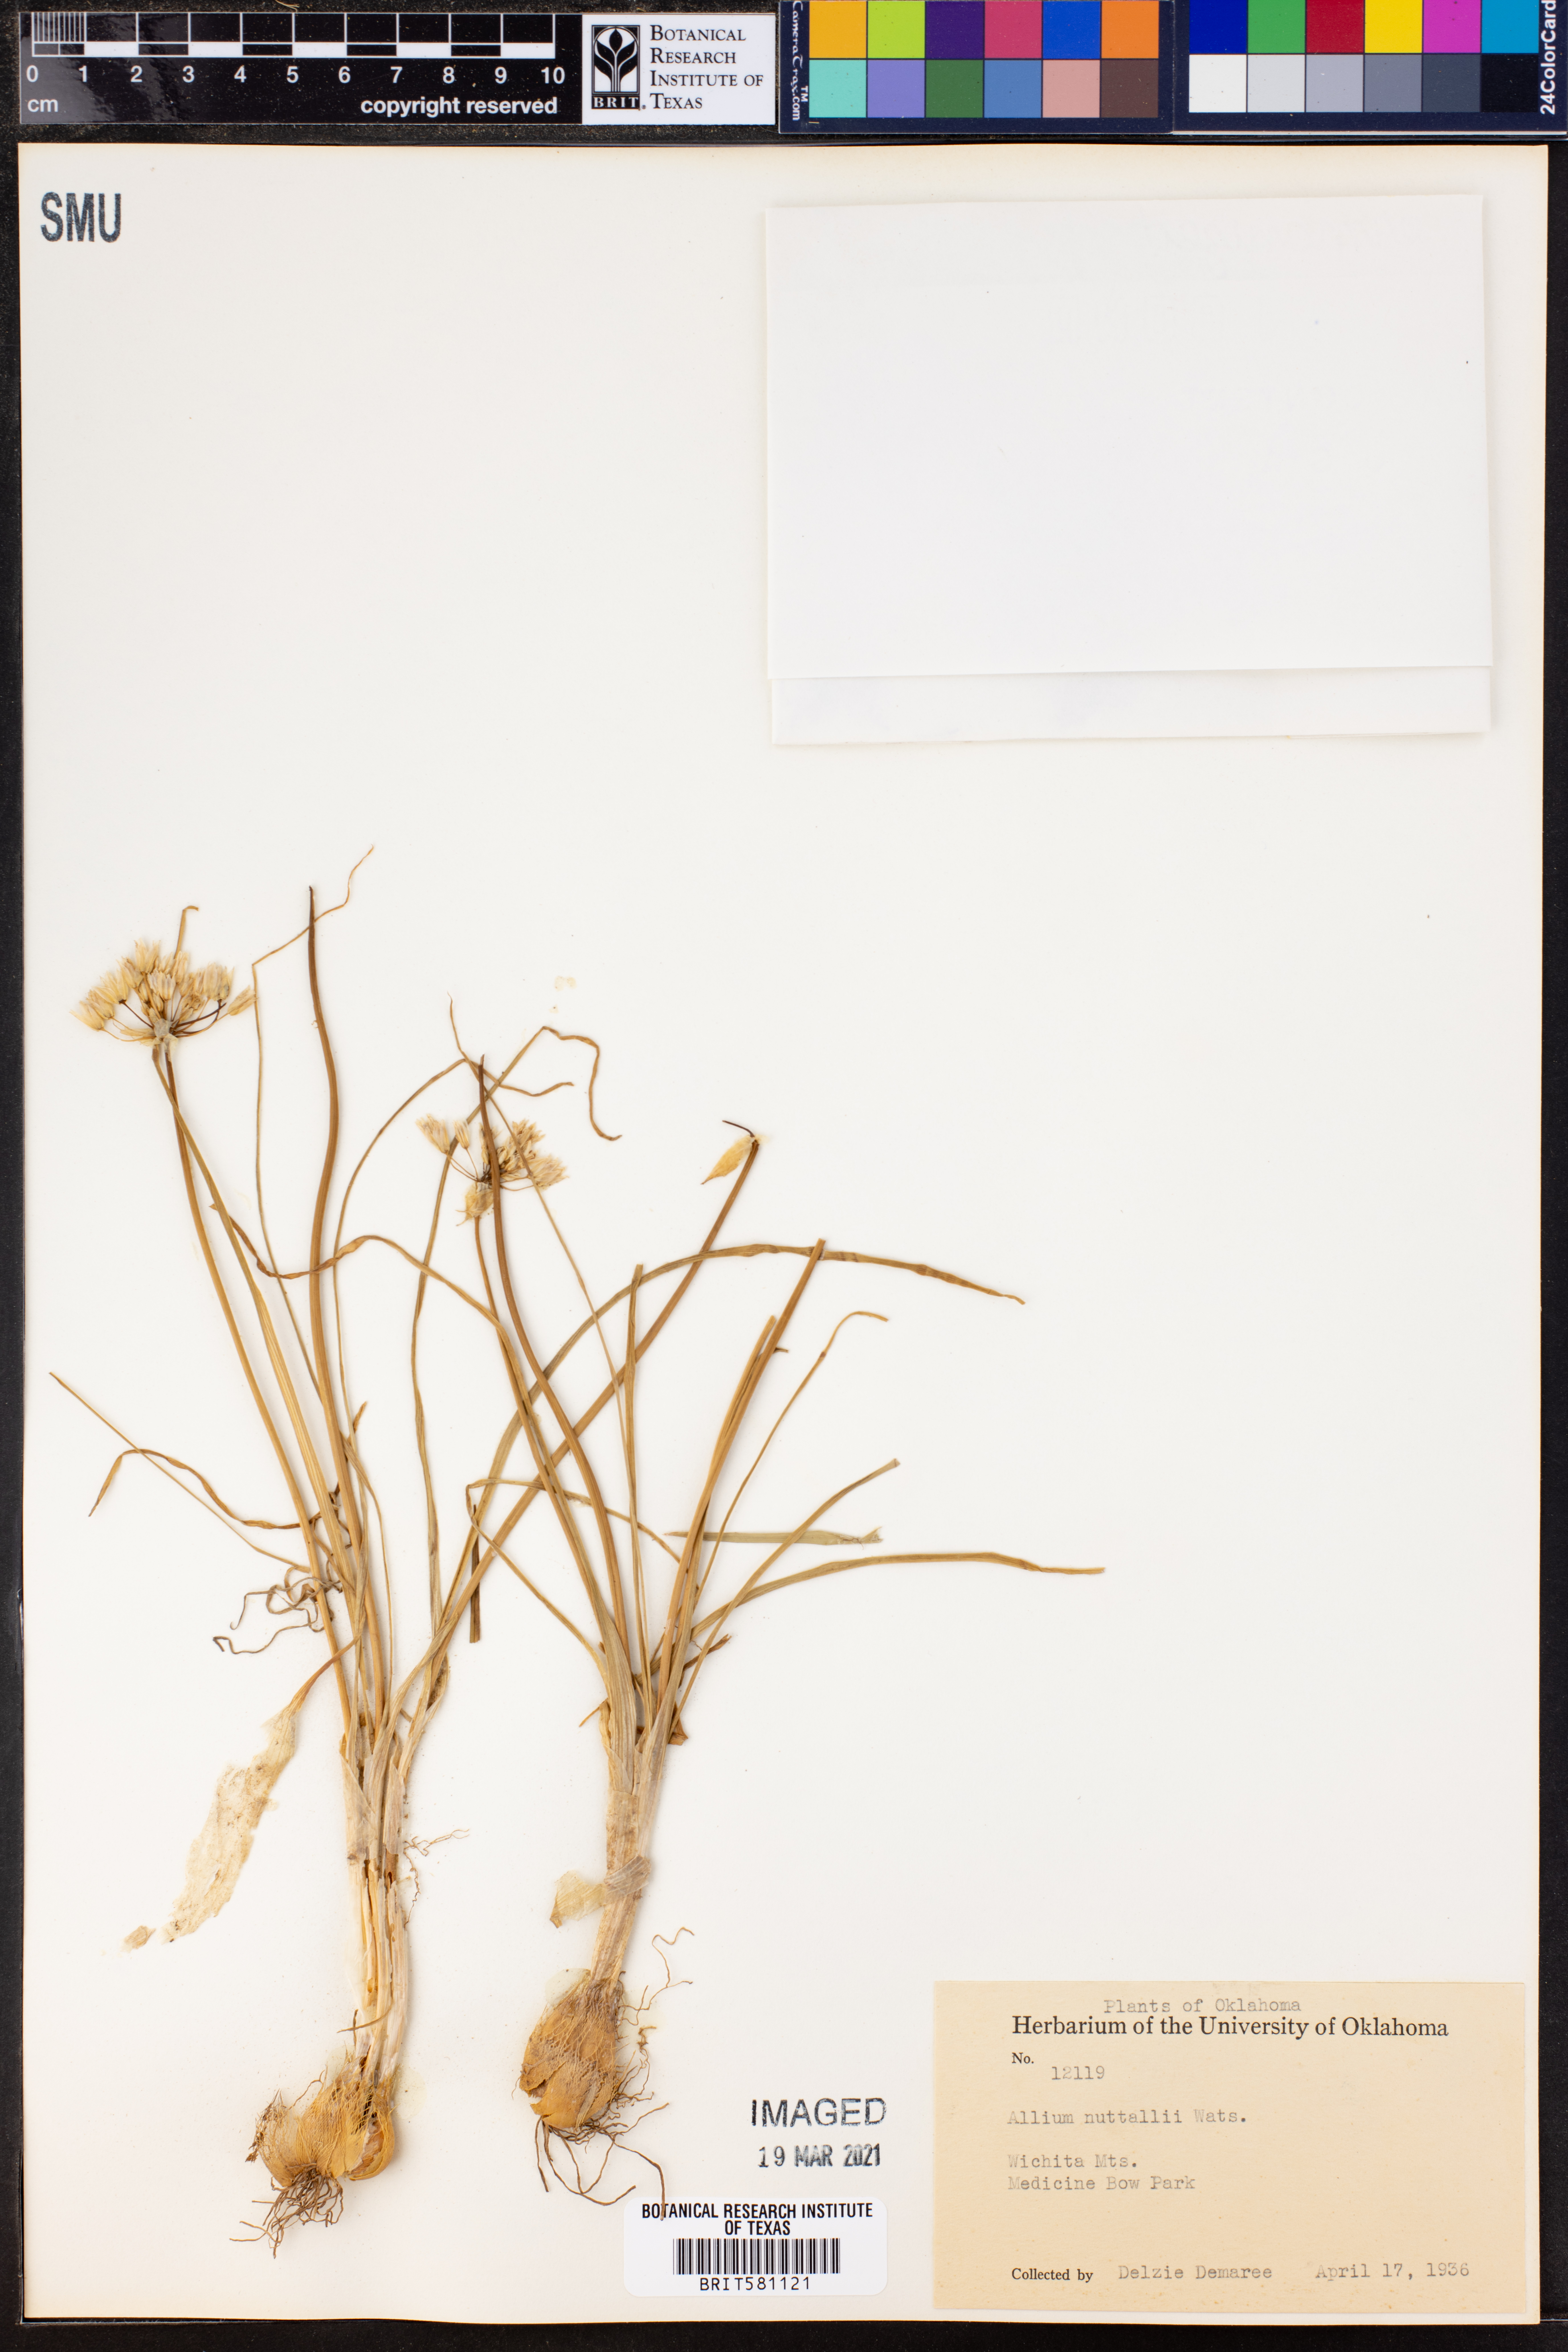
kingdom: Plantae
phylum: Tracheophyta
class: Liliopsida
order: Asparagales
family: Amaryllidaceae
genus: Allium
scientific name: Allium drummondii
